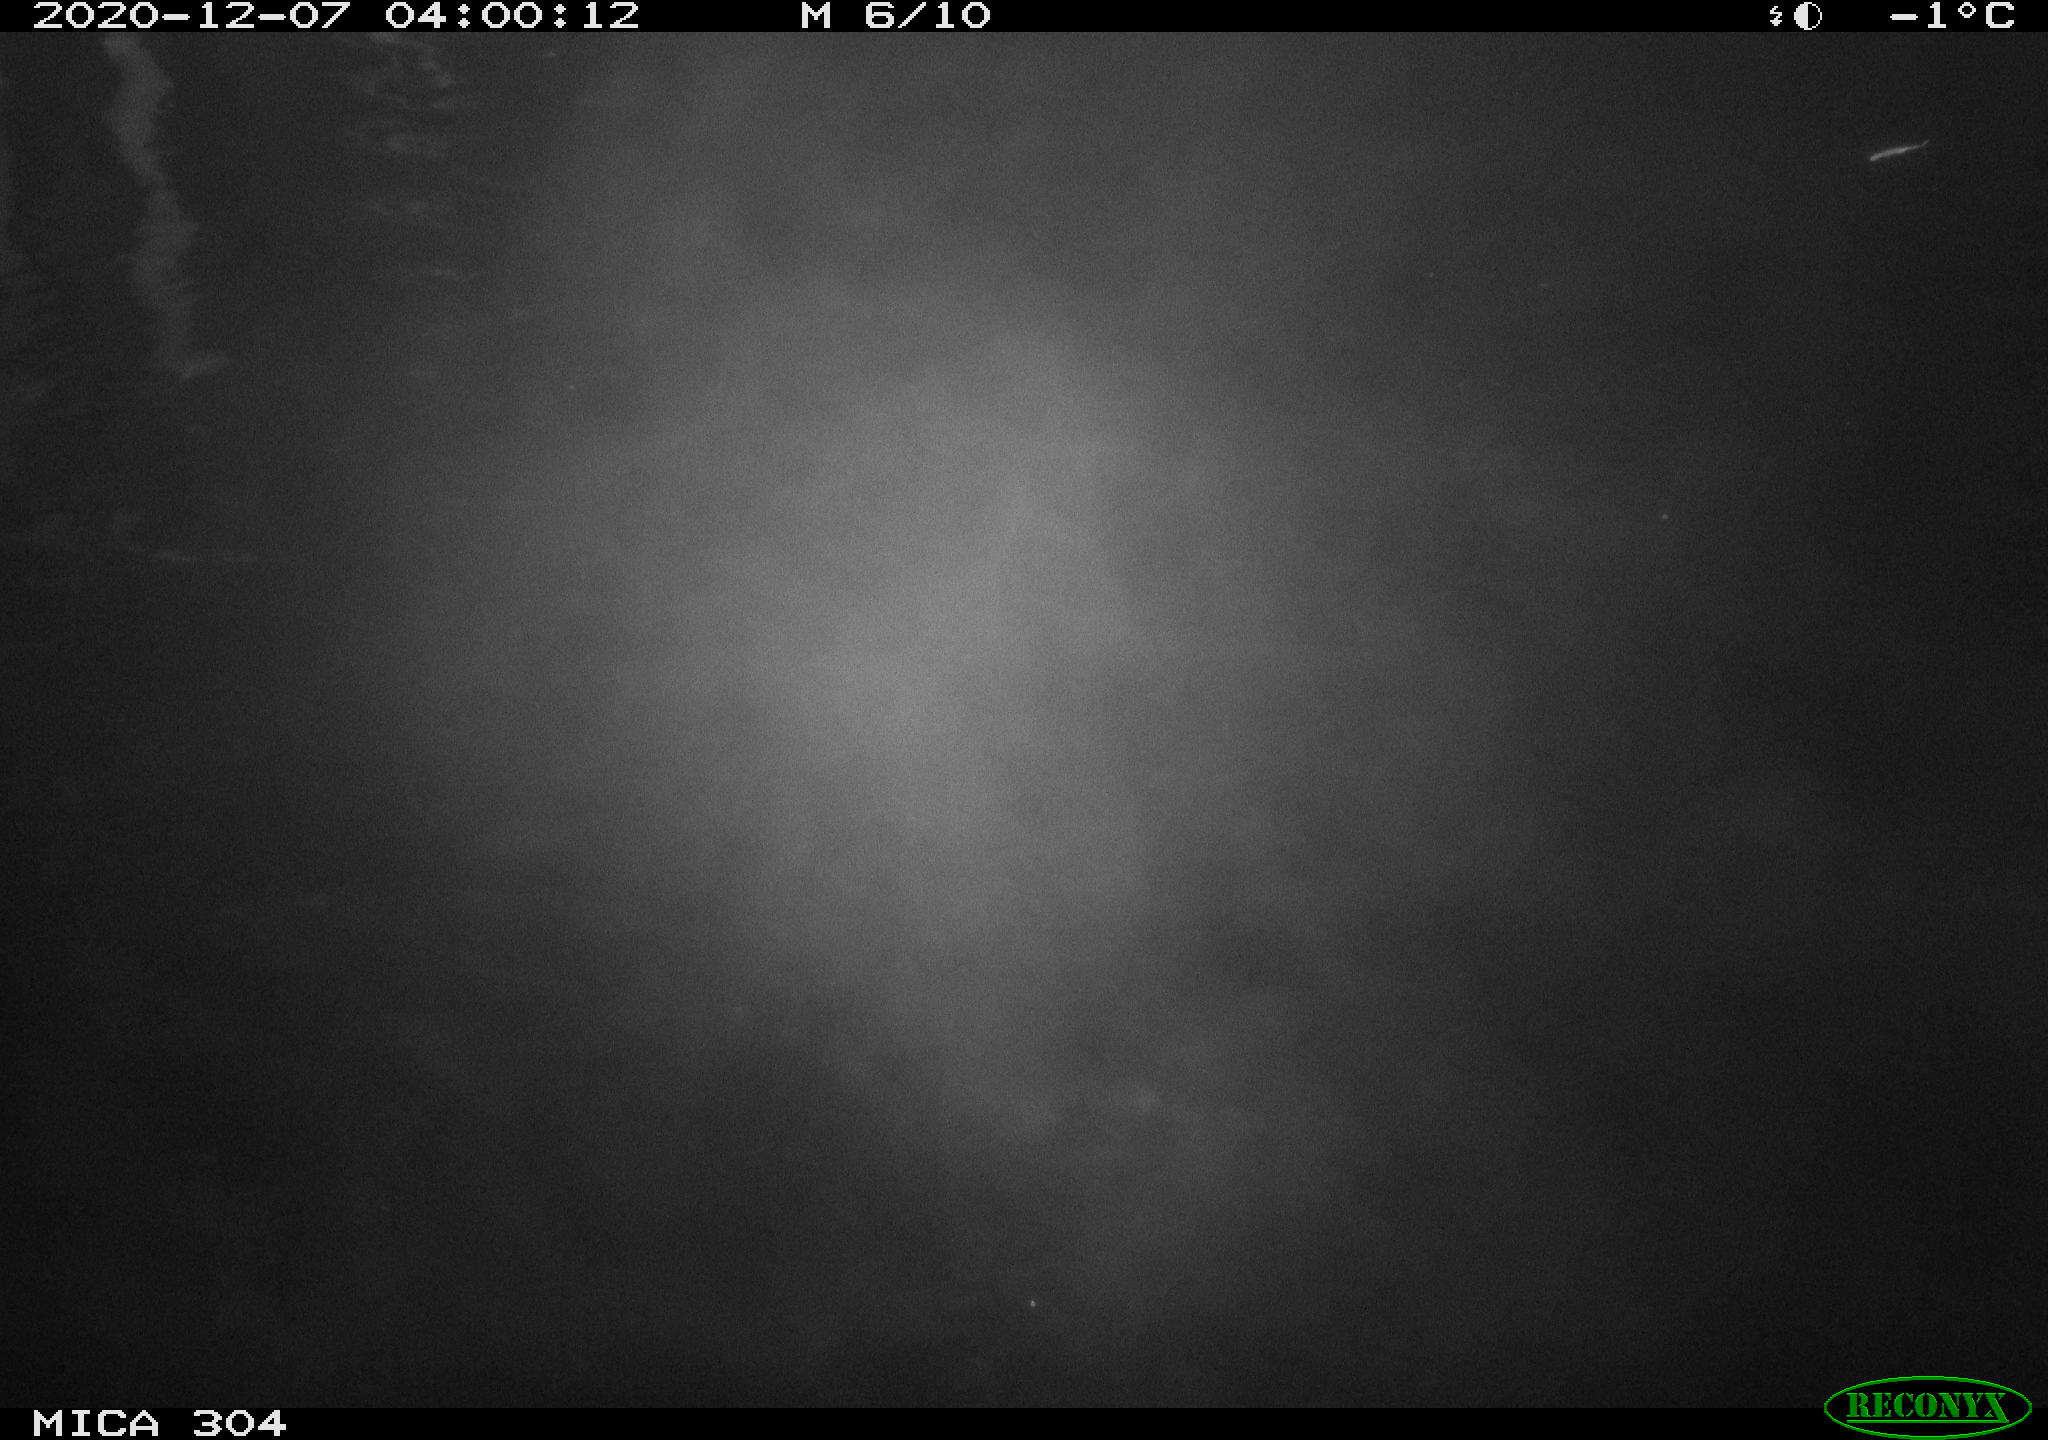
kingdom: Animalia
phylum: Chordata
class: Aves
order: Anseriformes
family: Anatidae
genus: Anas
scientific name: Anas platyrhynchos
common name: Mallard
